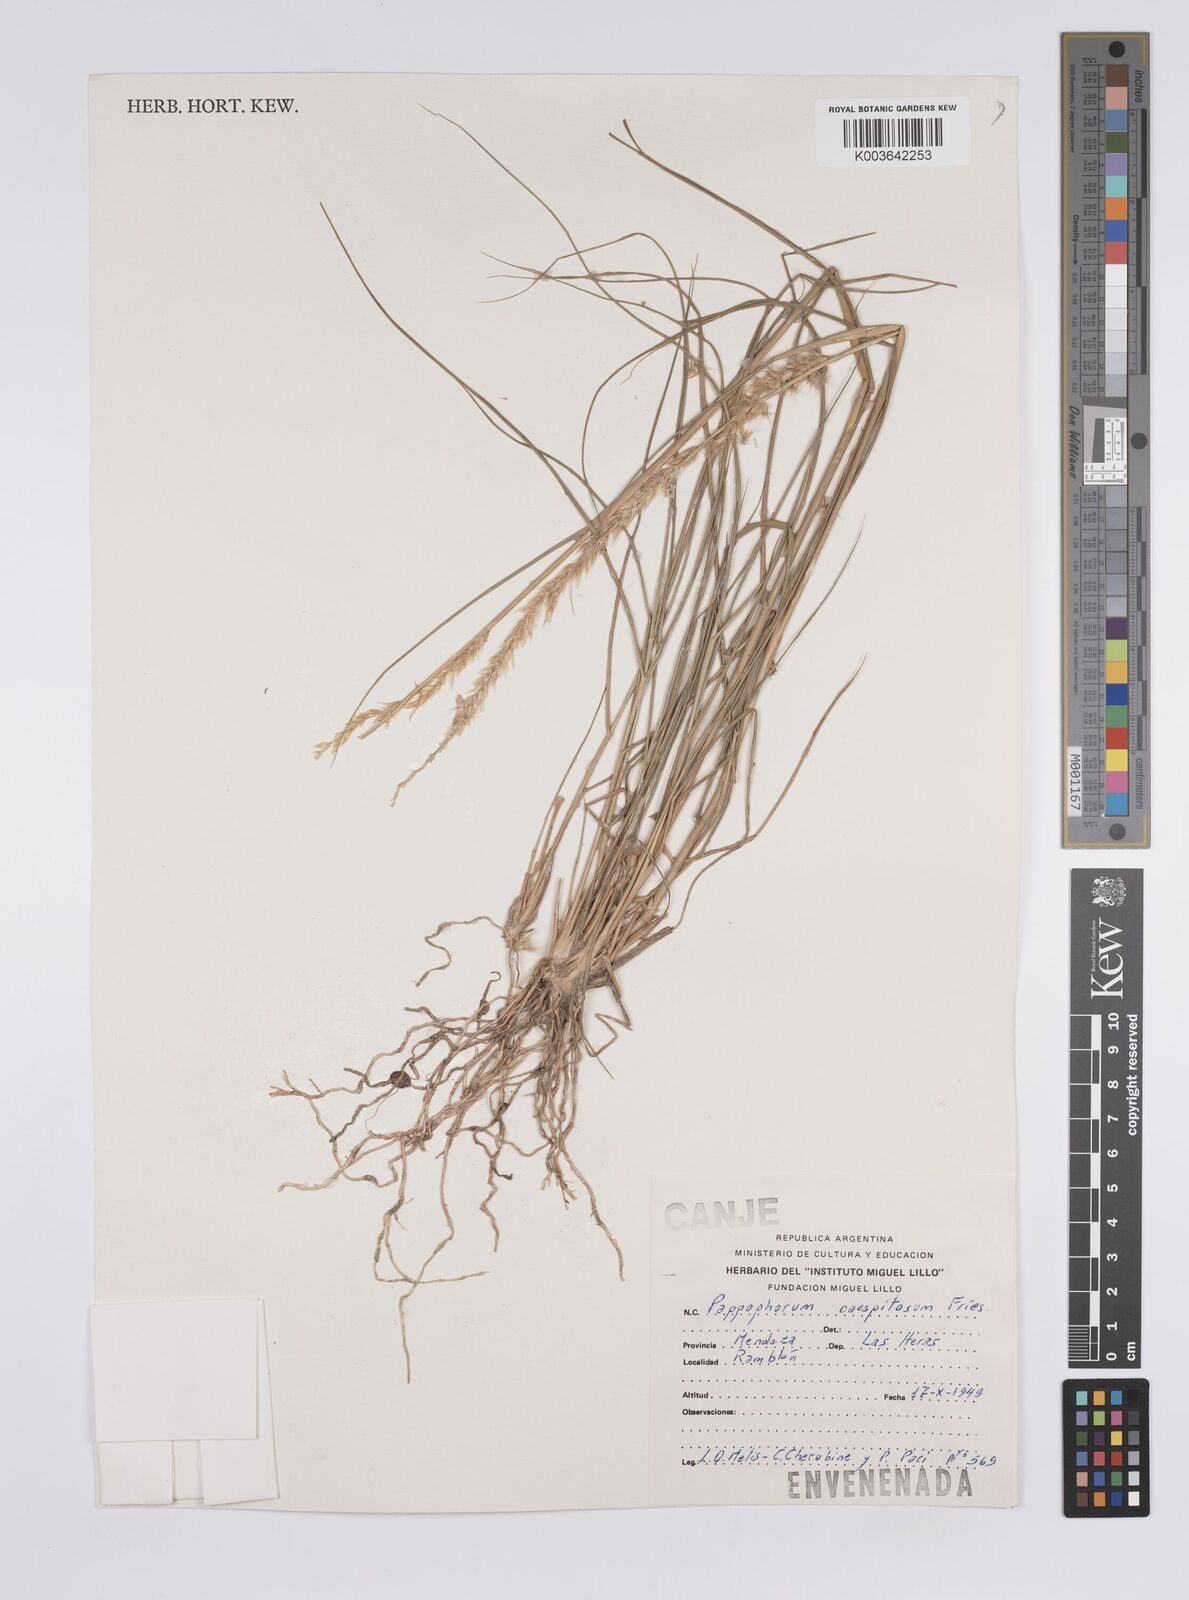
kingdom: Plantae
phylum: Tracheophyta
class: Liliopsida
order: Poales
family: Poaceae
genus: Pappophorum
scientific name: Pappophorum caespitosum
